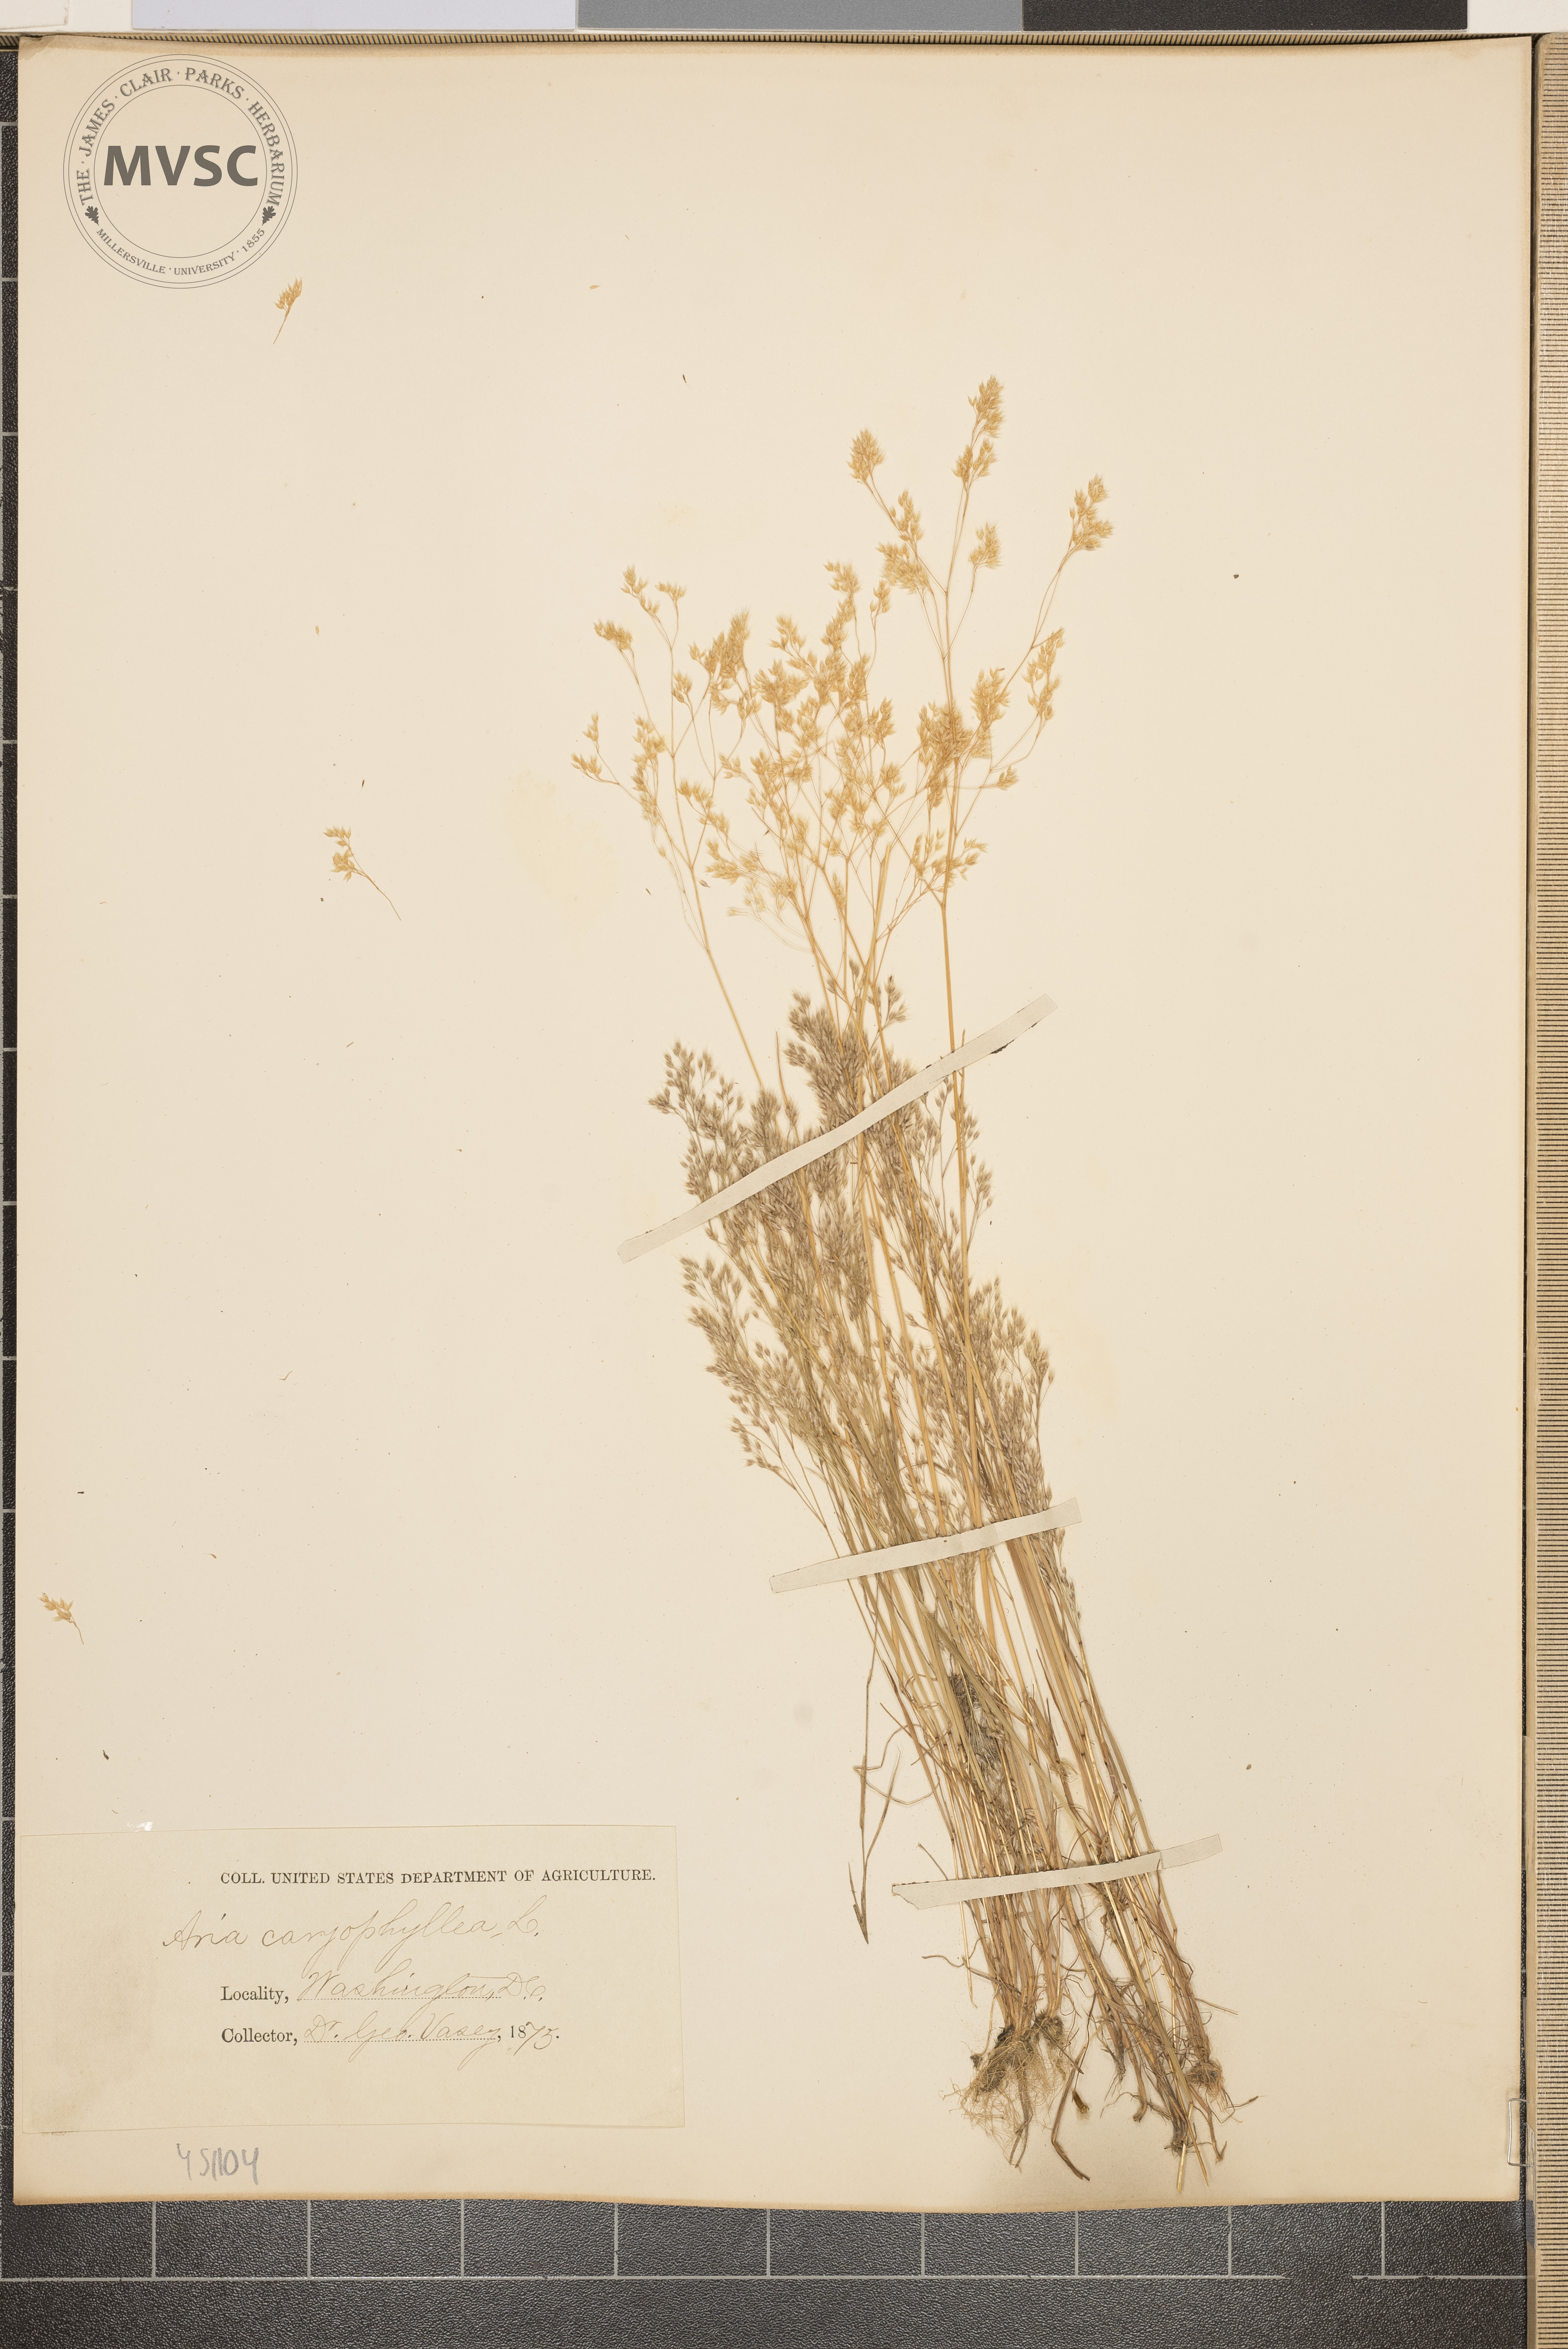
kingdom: Plantae
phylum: Tracheophyta
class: Liliopsida
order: Poales
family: Poaceae
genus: Aira
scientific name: Aira caryophyllea
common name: Silver hairgrass
